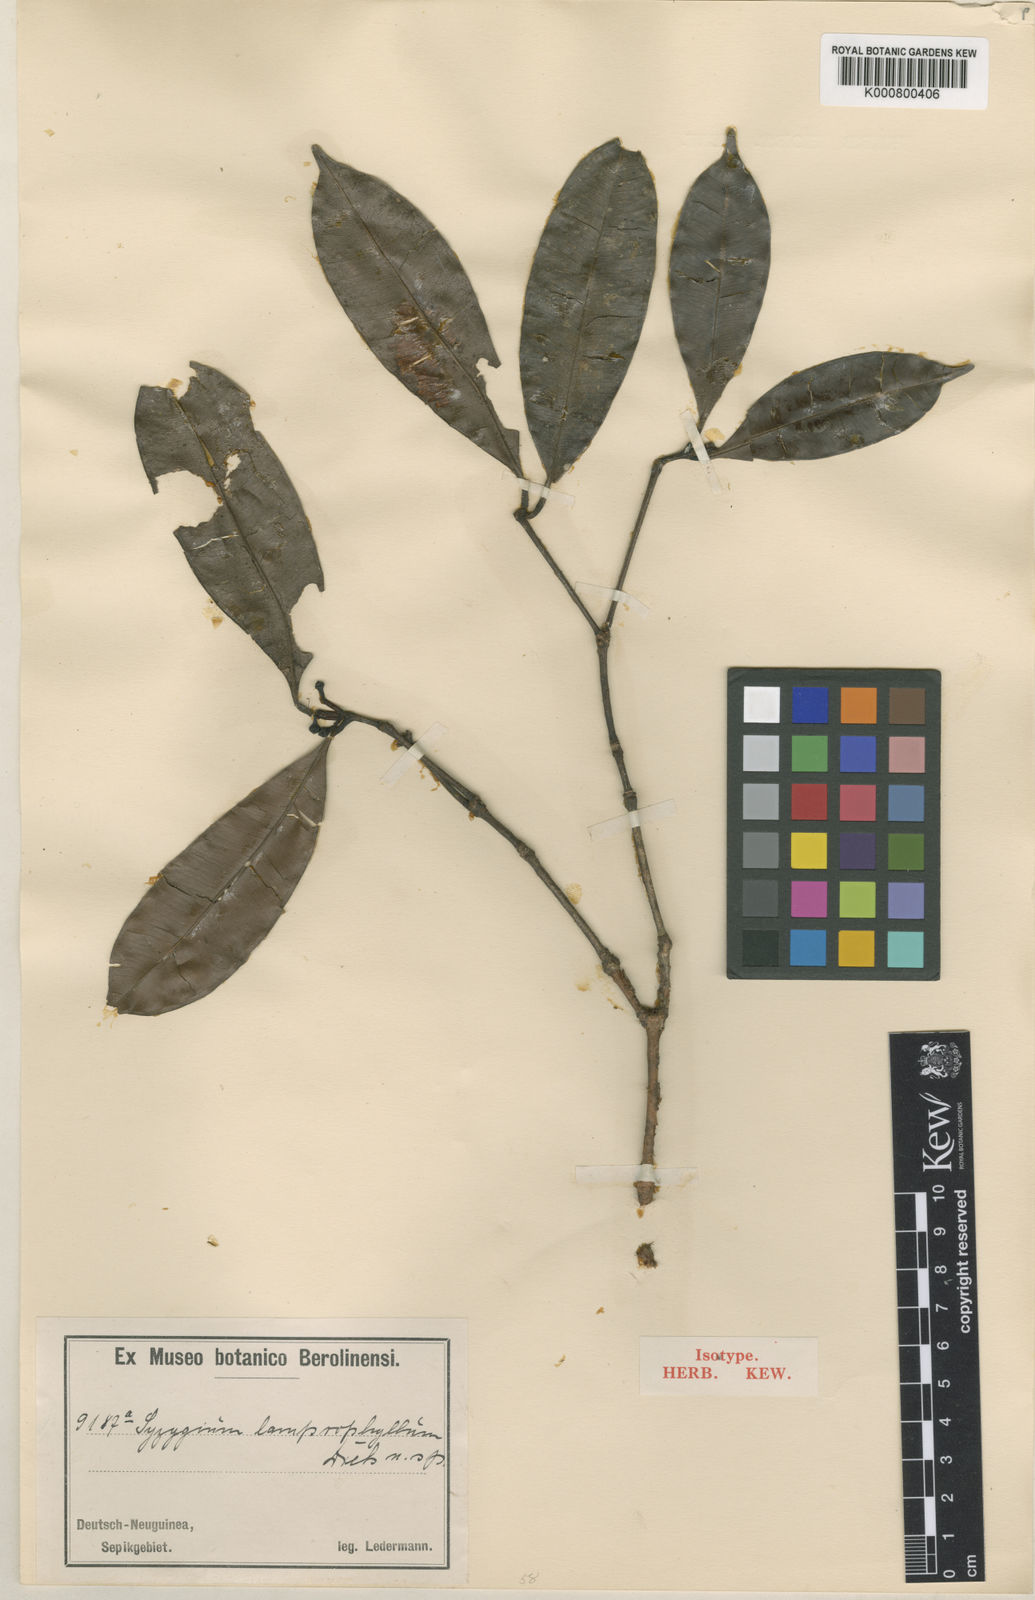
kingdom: Plantae
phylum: Tracheophyta
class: Magnoliopsida
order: Myrtales
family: Myrtaceae
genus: Syzygium
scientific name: Syzygium lamprophyllum
